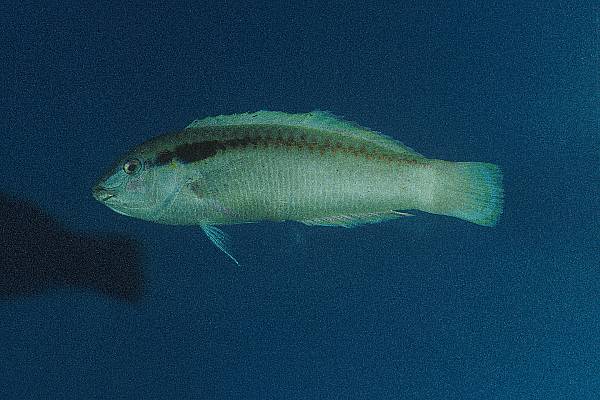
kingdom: Animalia
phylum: Chordata
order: Perciformes
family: Labridae
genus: Halichoeres
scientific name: Halichoeres scapularis
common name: Brownbanded wrasse
